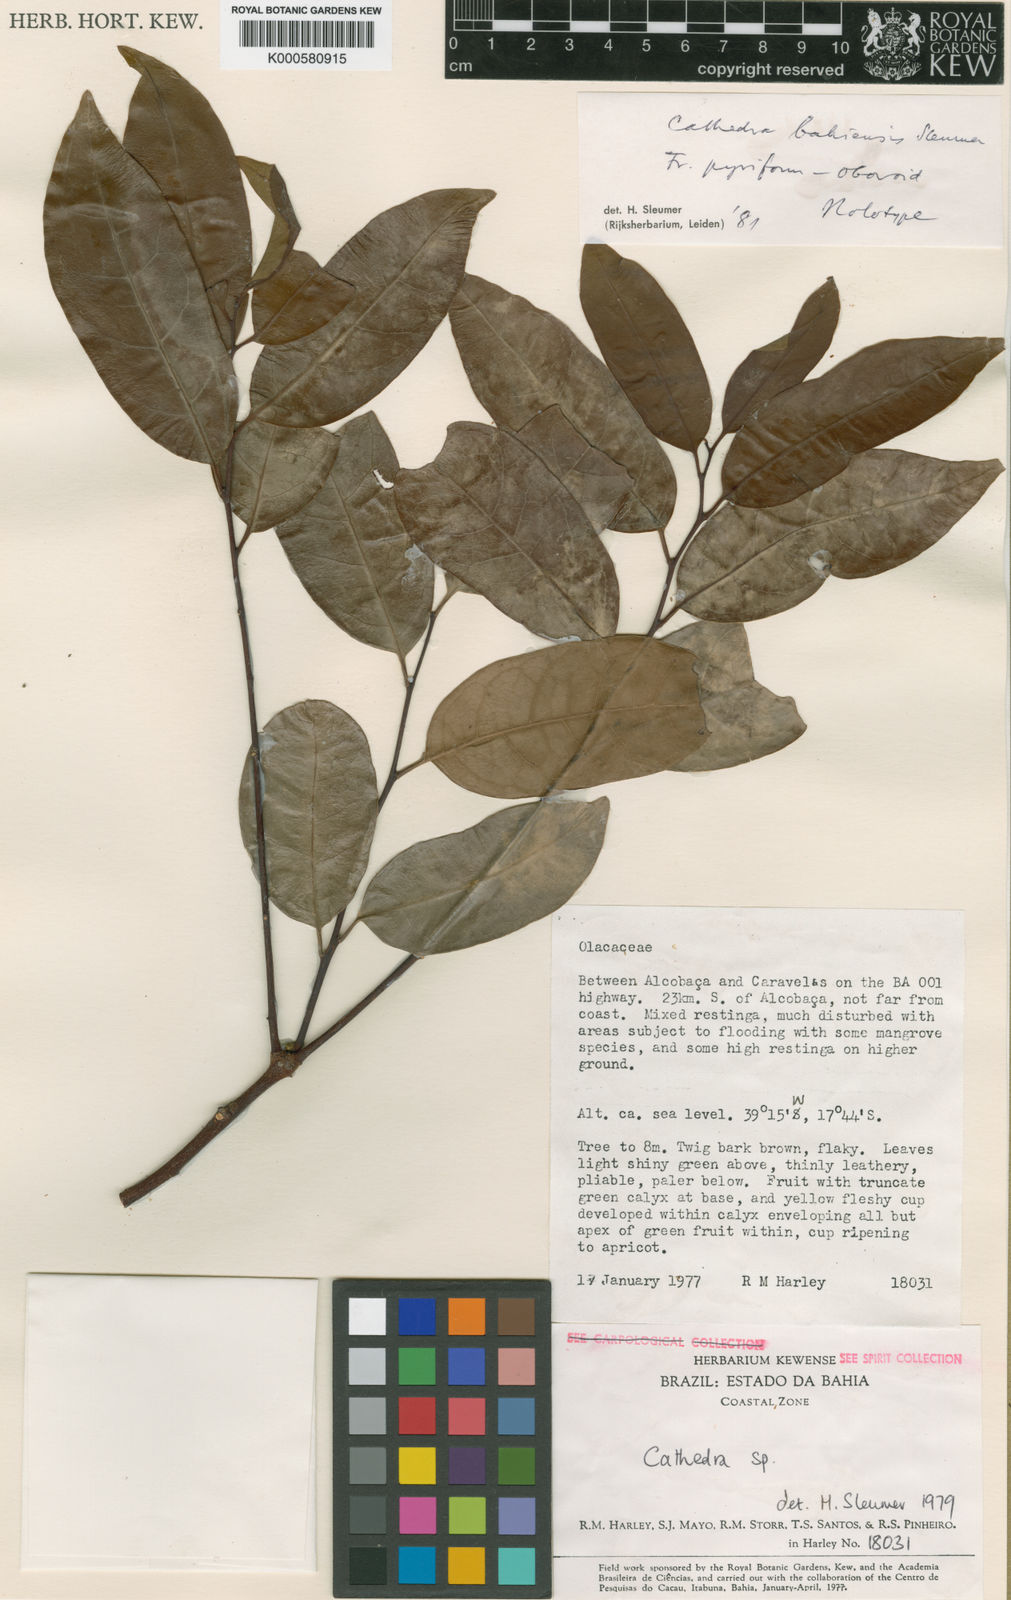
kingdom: Plantae
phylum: Tracheophyta
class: Magnoliopsida
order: Santalales
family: Aptandraceae
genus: Cathedra
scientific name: Cathedra bahiensis
